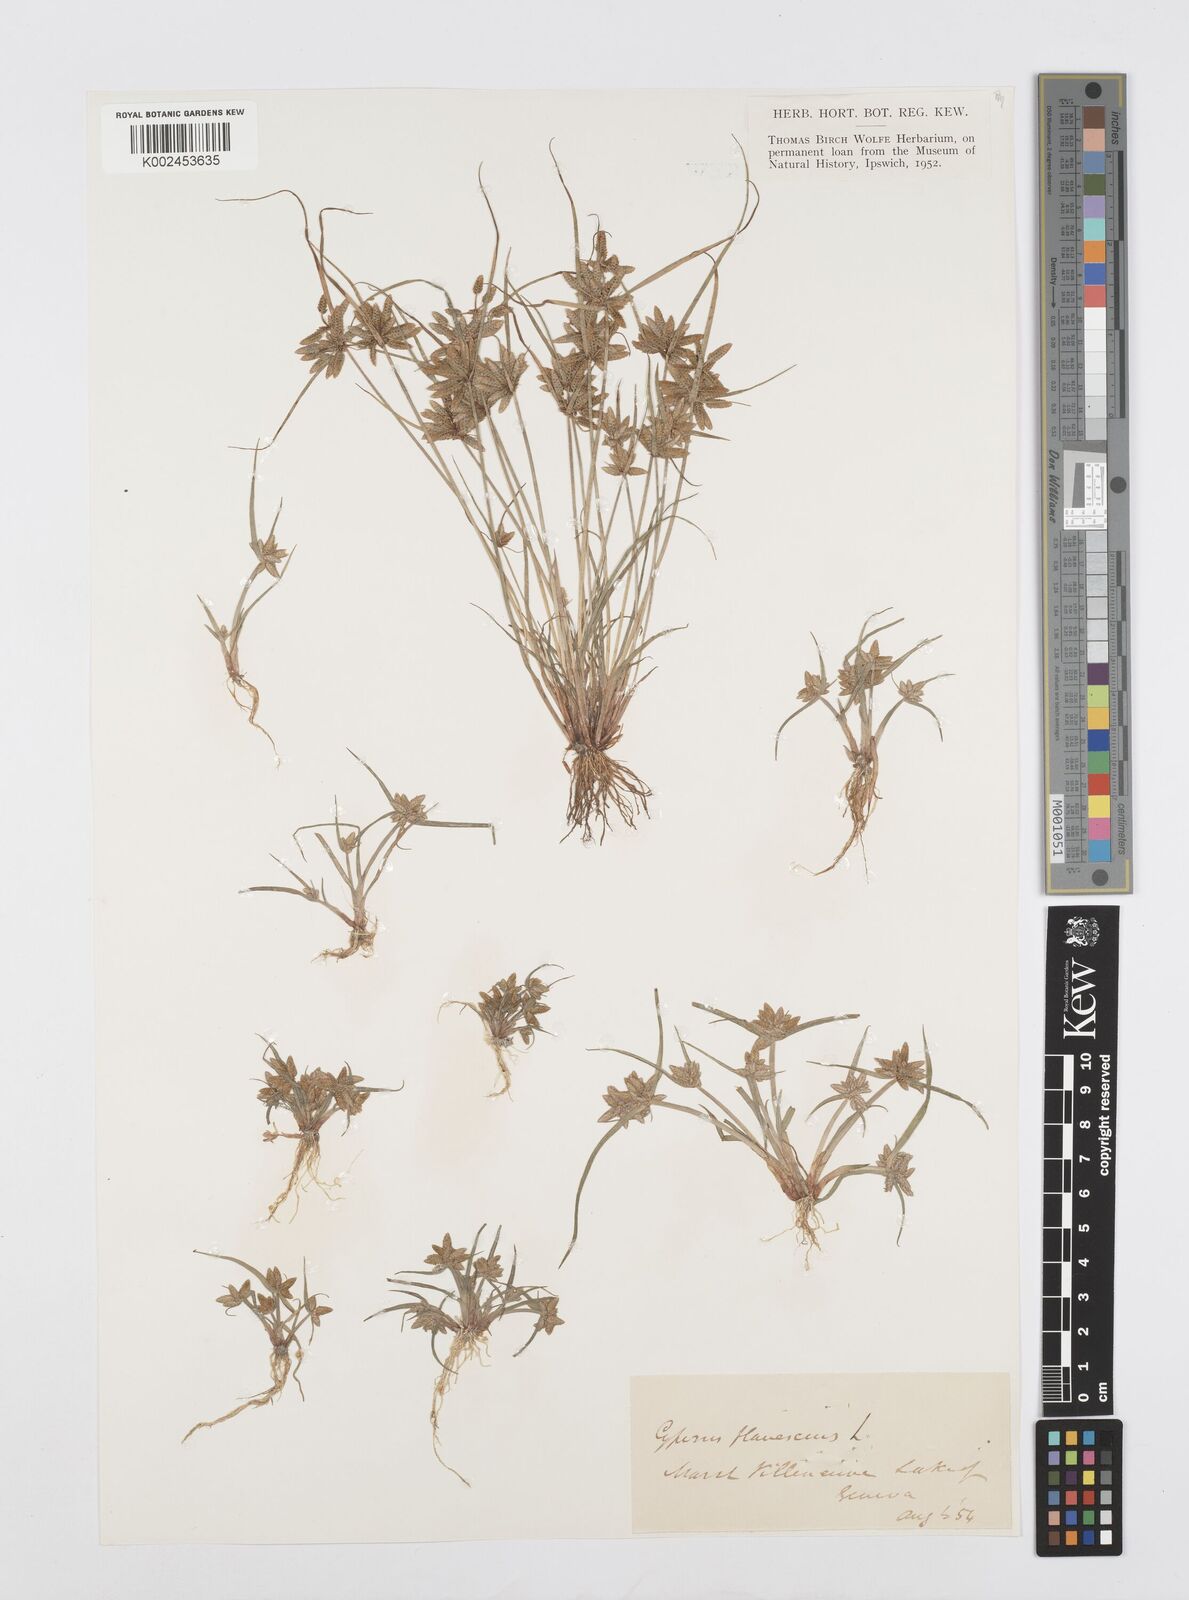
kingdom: Plantae
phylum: Tracheophyta
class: Liliopsida
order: Poales
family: Cyperaceae
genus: Cyperus
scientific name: Cyperus flavescens
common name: Yellow galingale
